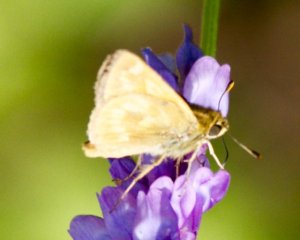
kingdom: Animalia
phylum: Arthropoda
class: Insecta
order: Lepidoptera
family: Hesperiidae
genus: Polites
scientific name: Polites
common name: Long Dash Skipper
